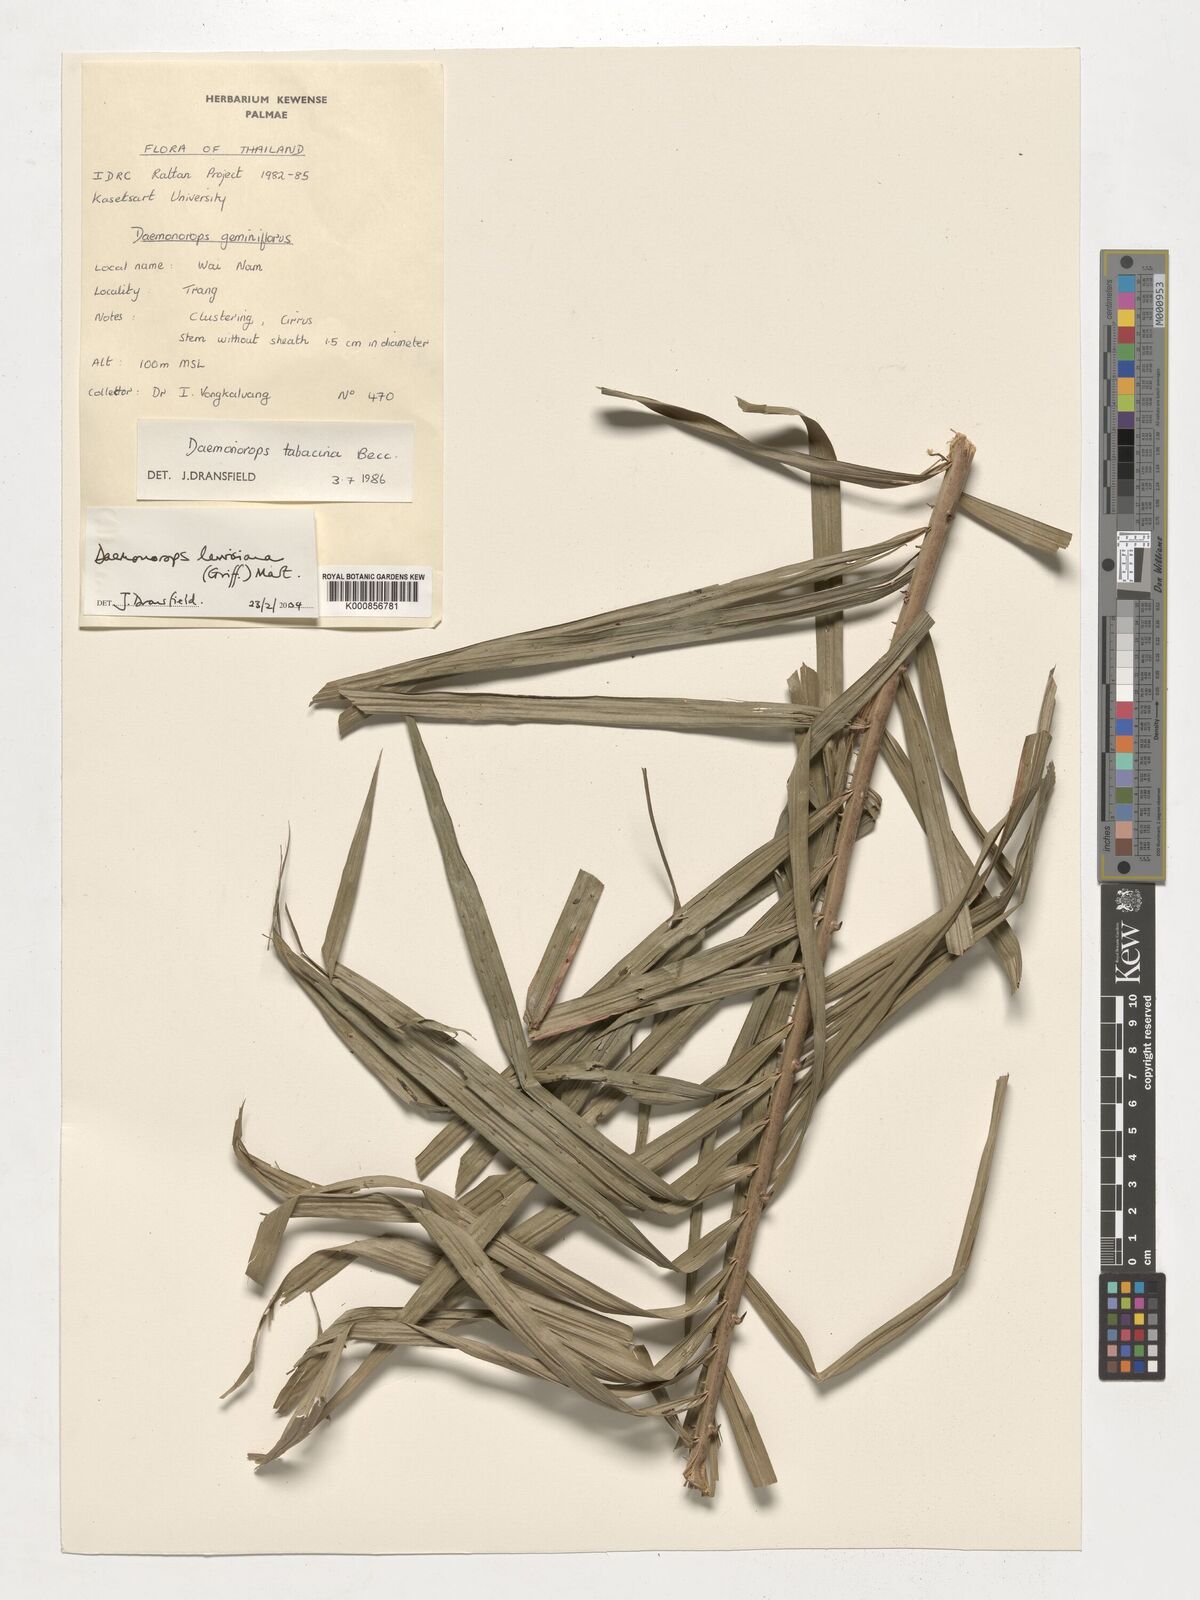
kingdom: Plantae
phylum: Tracheophyta
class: Liliopsida
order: Arecales
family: Arecaceae
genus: Calamus
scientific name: Calamus melanochaetes
